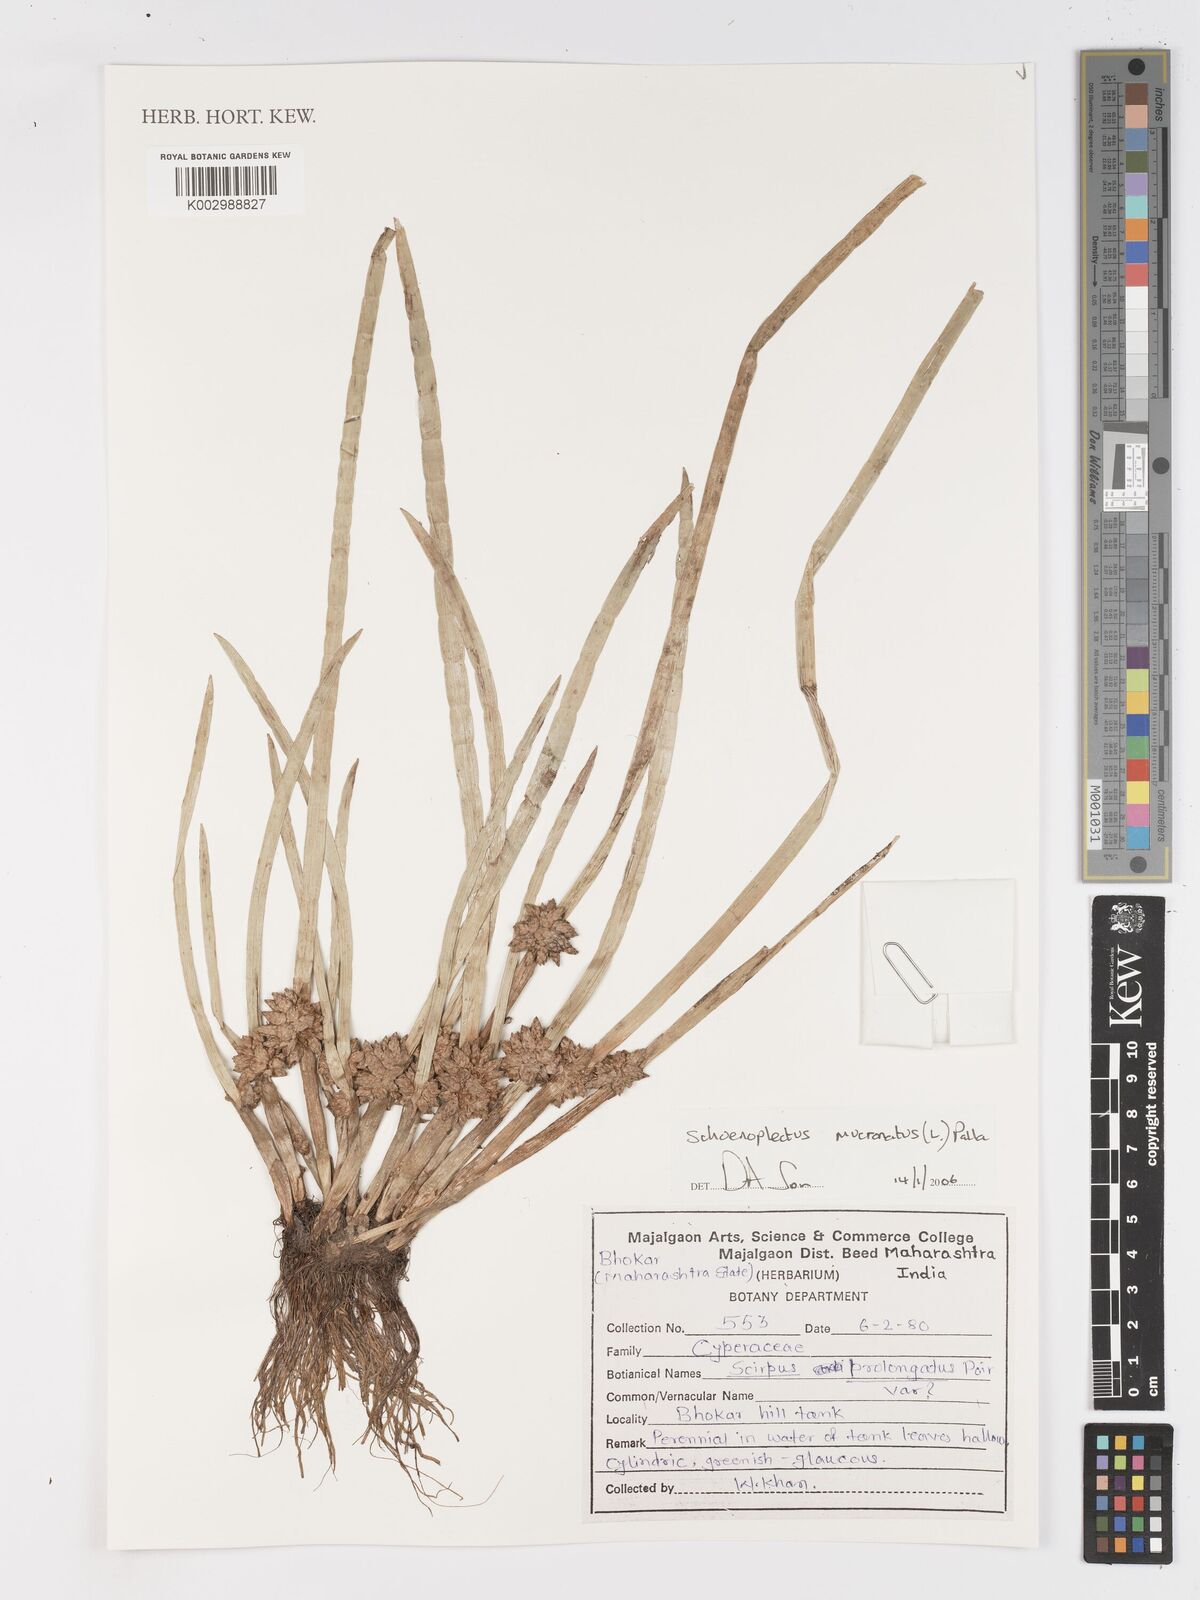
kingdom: Plantae
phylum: Tracheophyta
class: Liliopsida
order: Poales
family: Cyperaceae
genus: Schoenoplectiella
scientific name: Schoenoplectiella mucronata
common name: Bog bulrush
